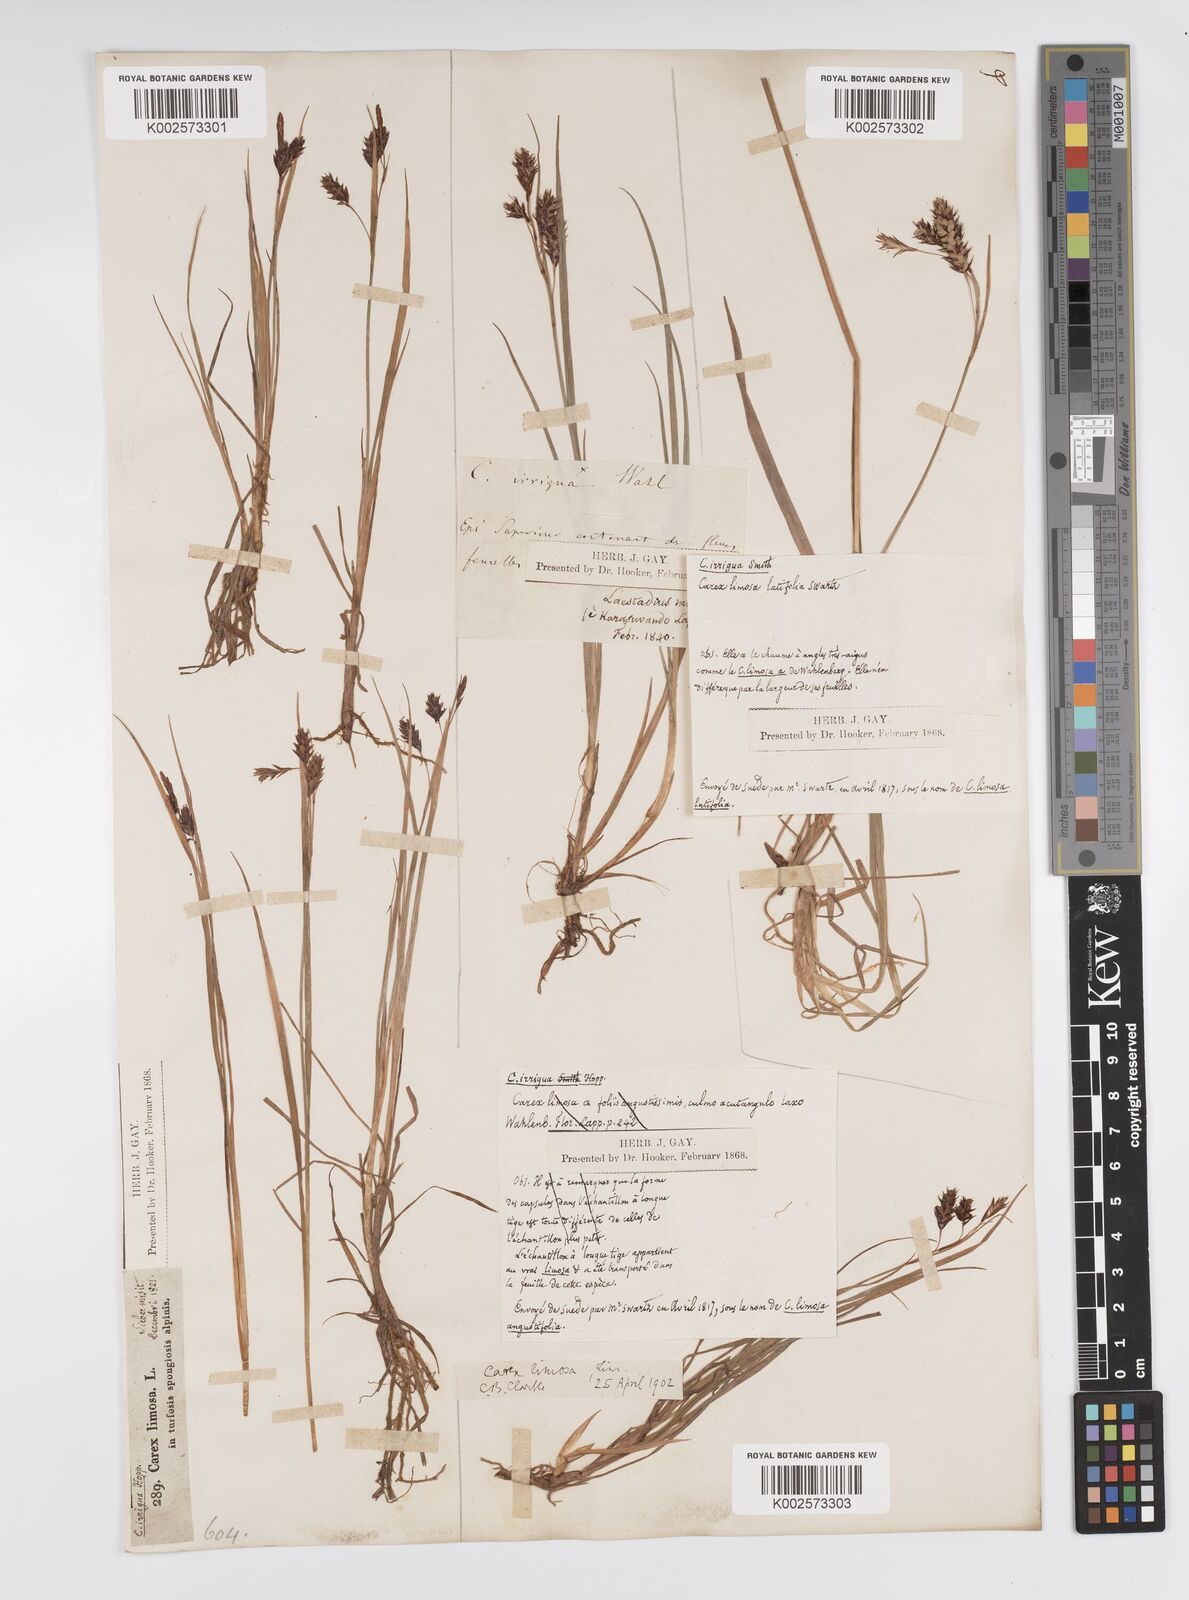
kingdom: Plantae
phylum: Tracheophyta
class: Liliopsida
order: Poales
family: Cyperaceae
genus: Carex
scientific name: Carex magellanica
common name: Bog sedge
